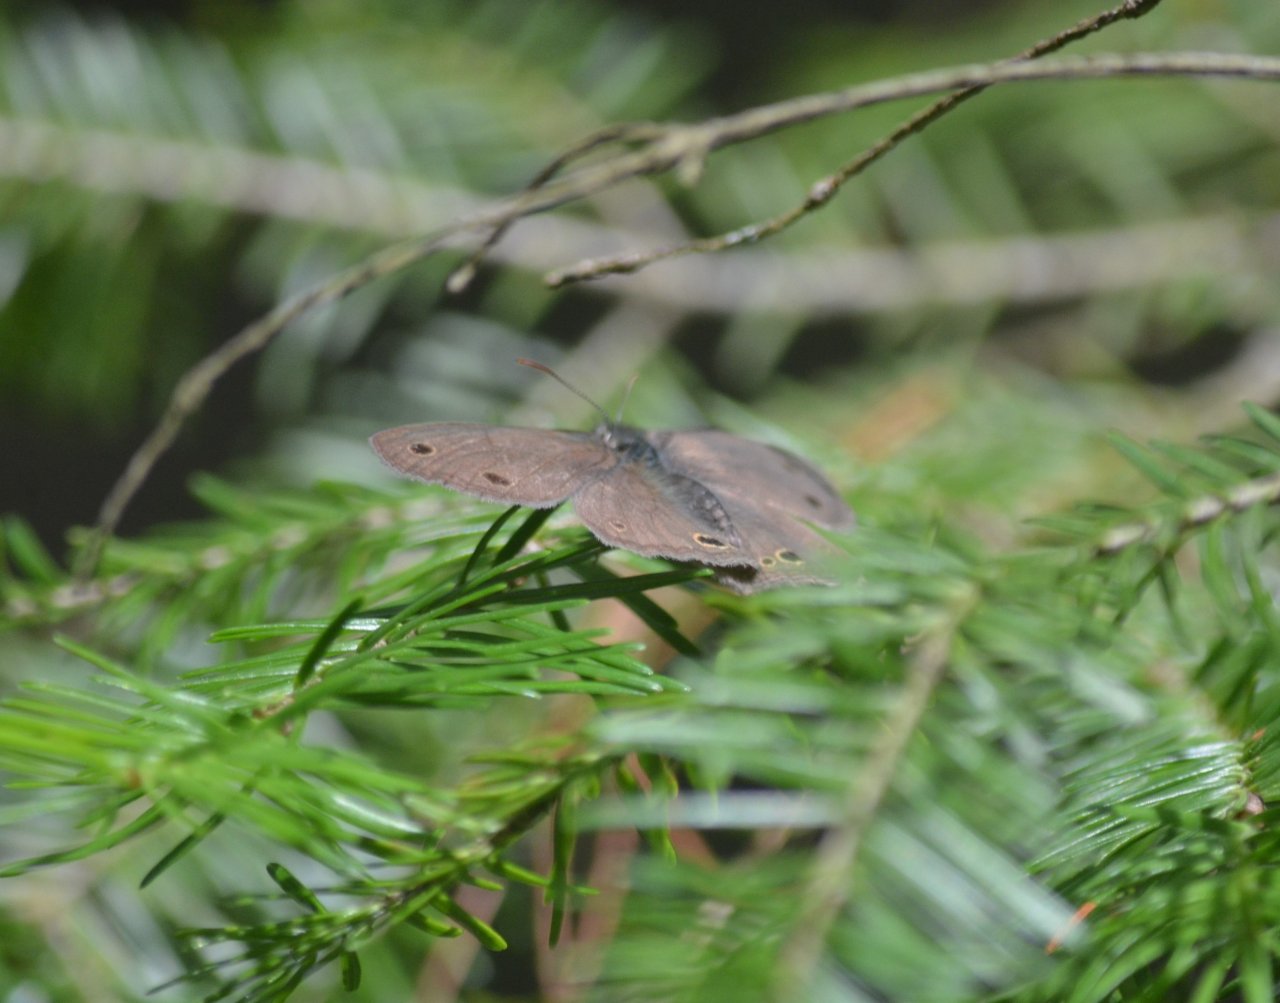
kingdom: Animalia
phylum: Arthropoda
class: Insecta
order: Lepidoptera
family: Nymphalidae
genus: Euptychia
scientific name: Euptychia cymela
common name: Little Wood Satyr
